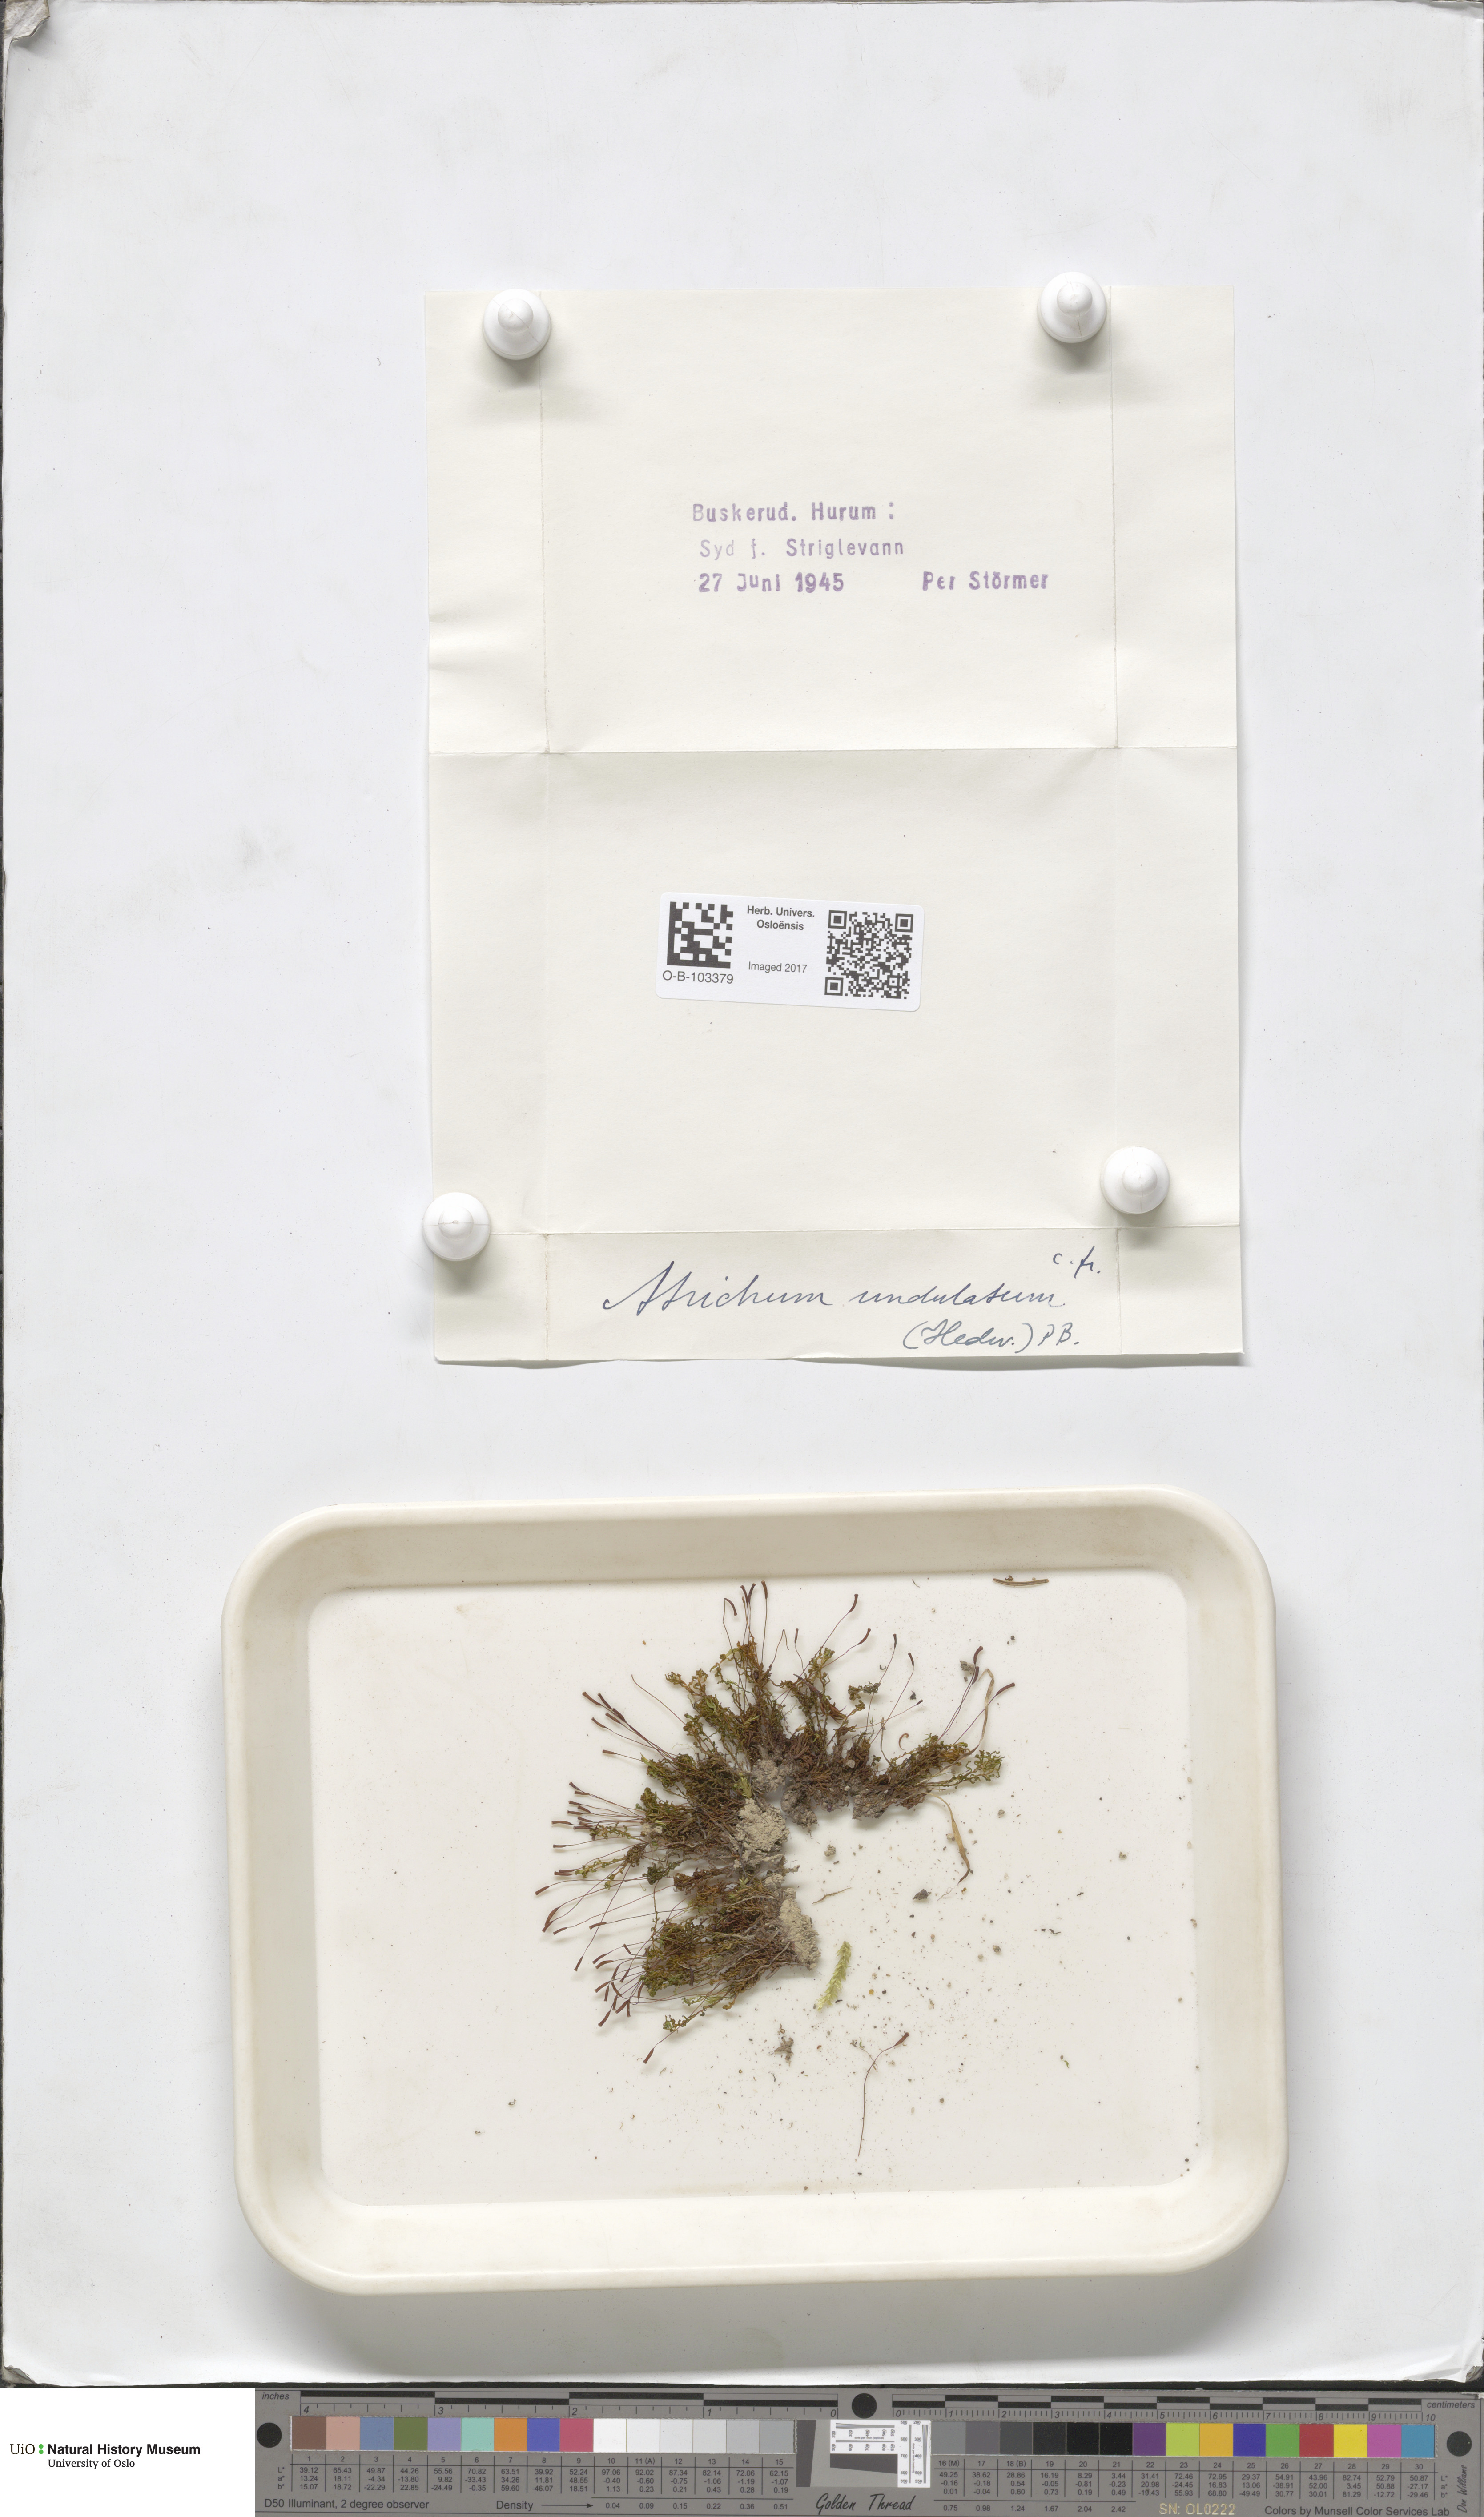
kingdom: Plantae
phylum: Bryophyta
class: Polytrichopsida
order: Polytrichales
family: Polytrichaceae
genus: Atrichum
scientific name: Atrichum undulatum
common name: Common smoothcap
